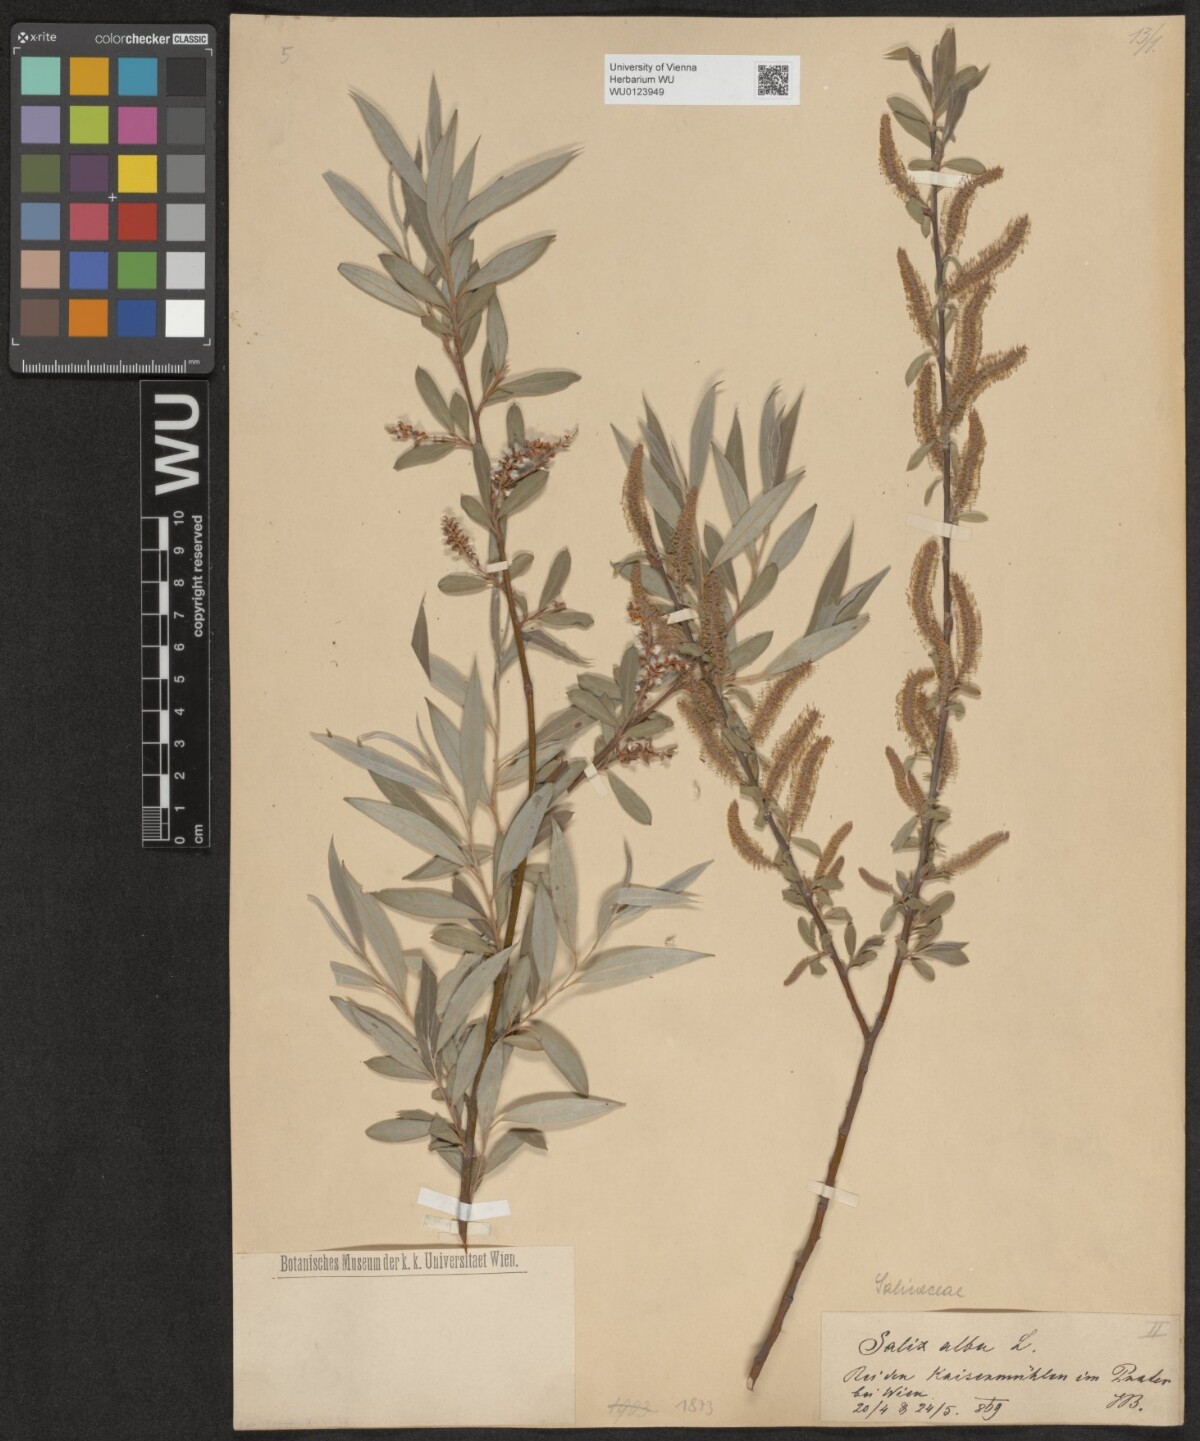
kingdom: Plantae
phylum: Tracheophyta
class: Magnoliopsida
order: Malpighiales
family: Salicaceae
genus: Salix
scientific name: Salix alba
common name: White willow
